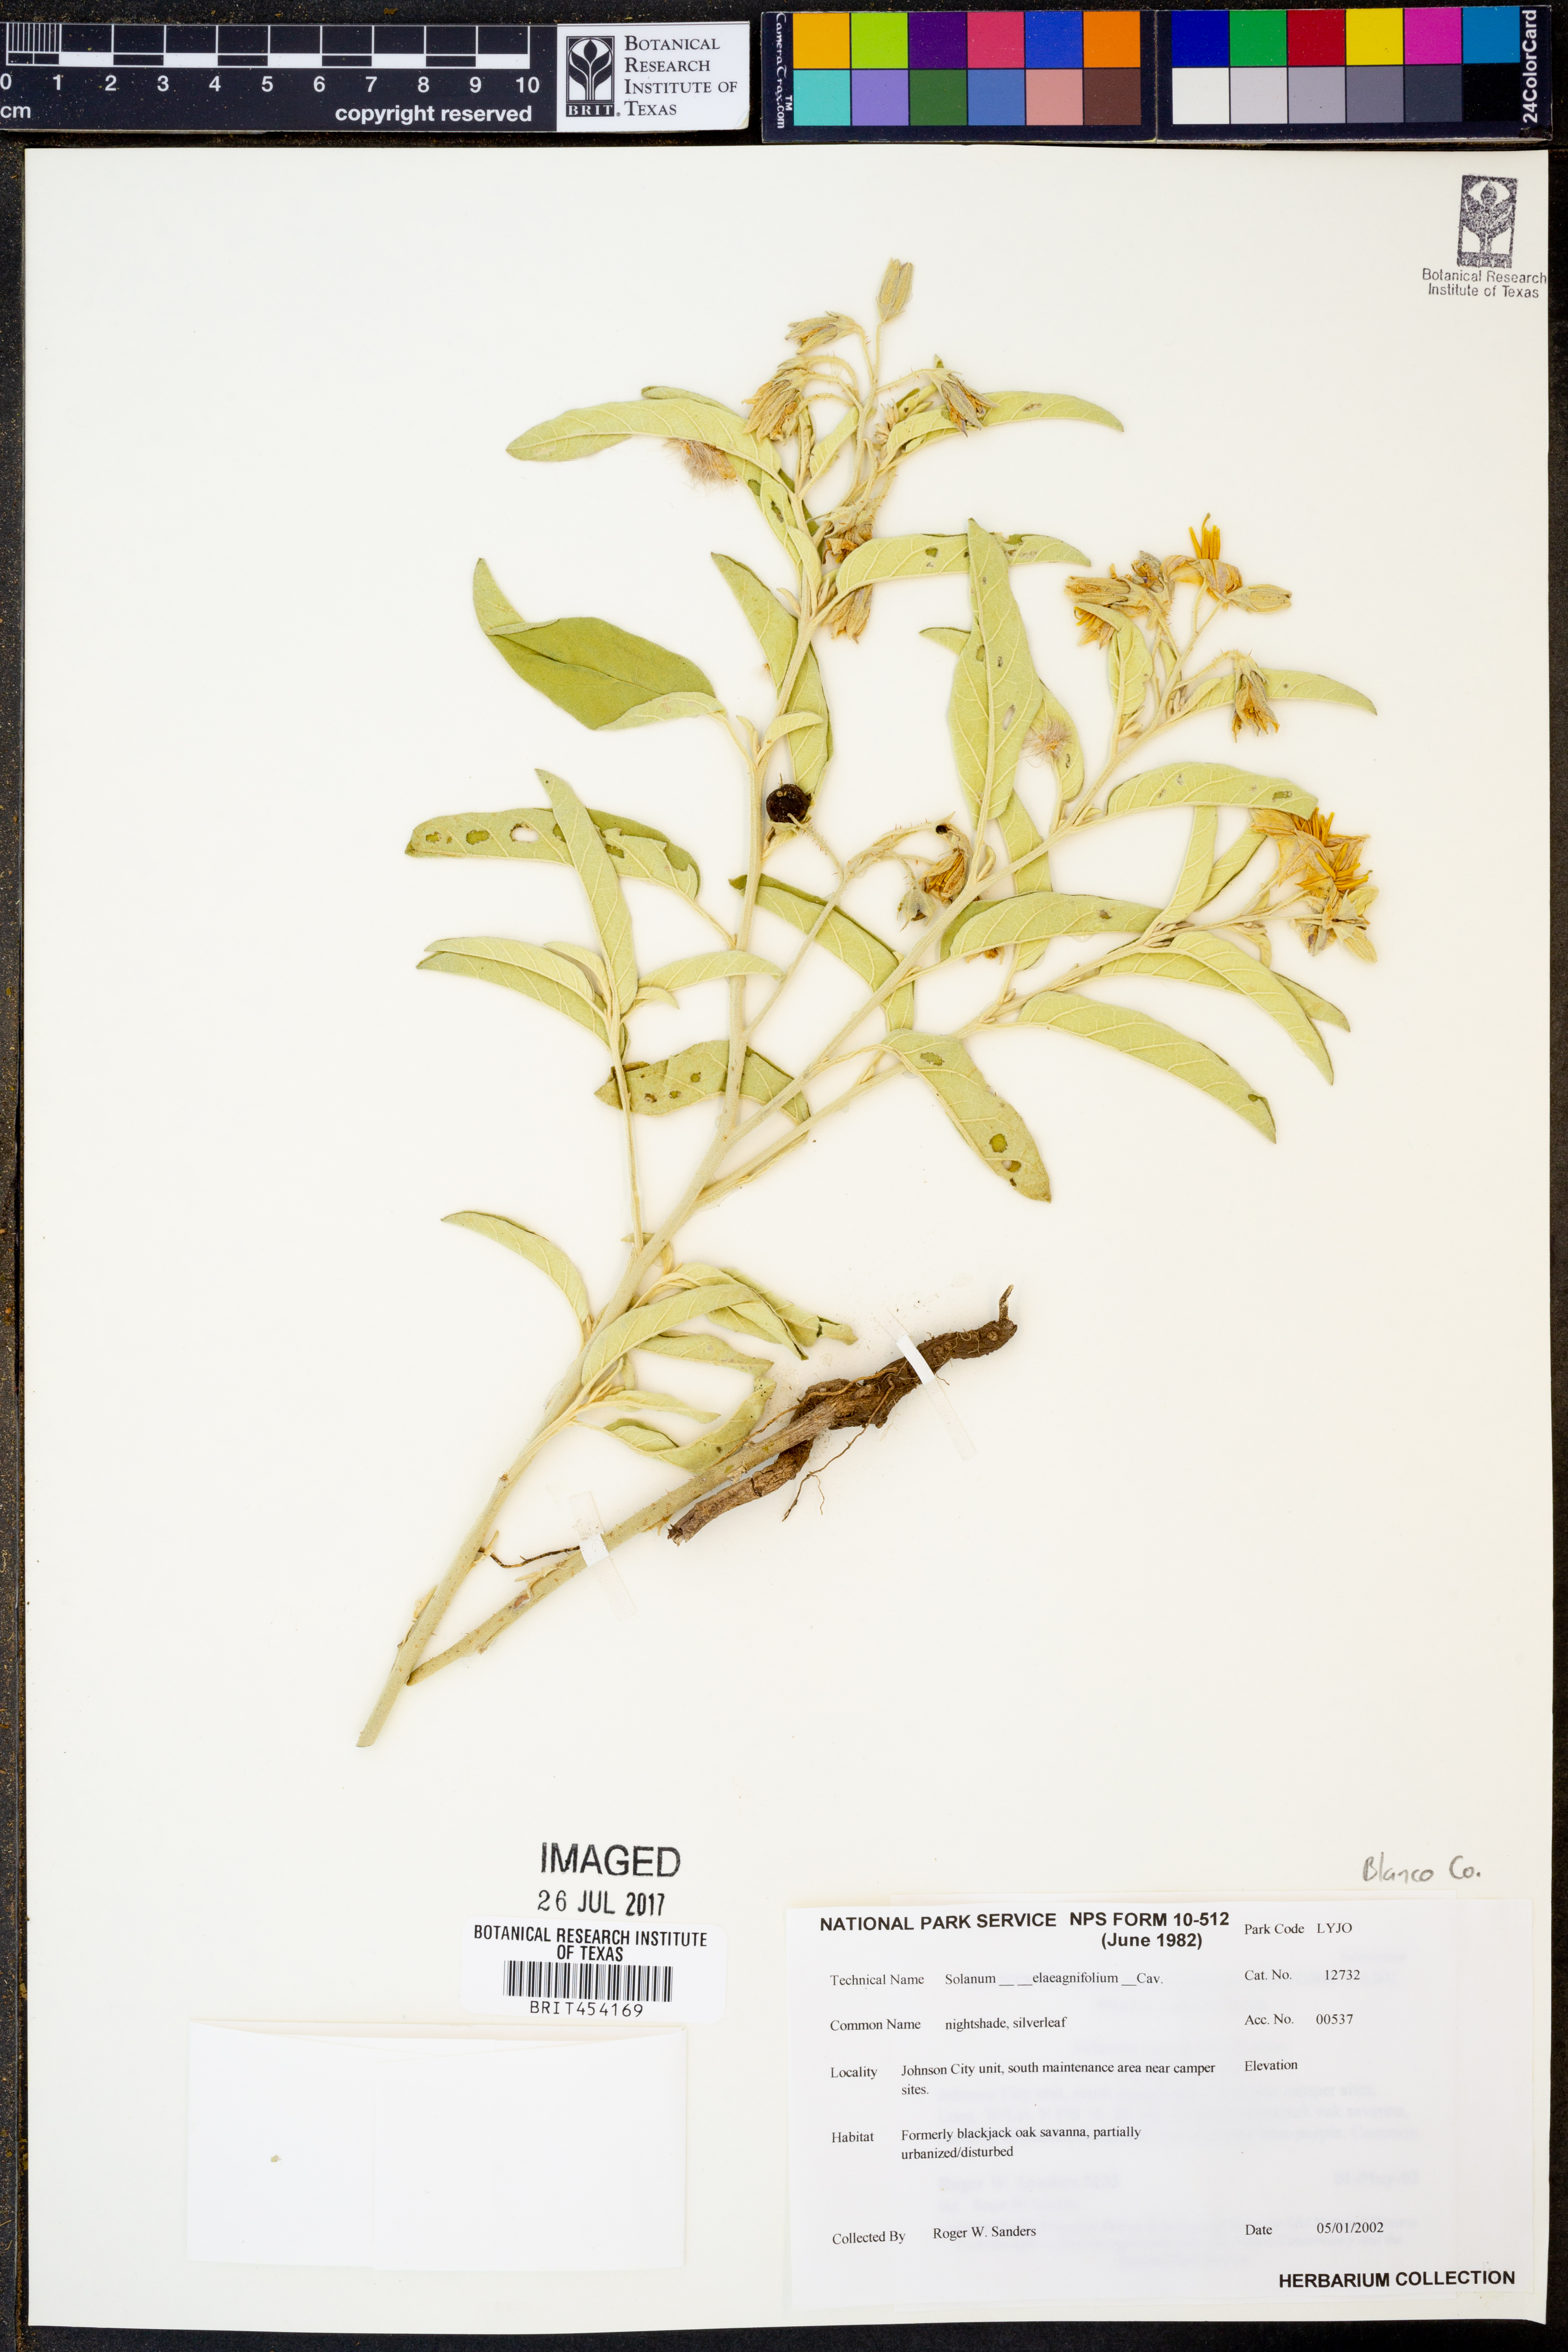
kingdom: Plantae
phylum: Tracheophyta
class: Magnoliopsida
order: Solanales
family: Solanaceae
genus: Solanum
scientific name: Solanum elaeagnifolium
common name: Silverleaf nightshade
